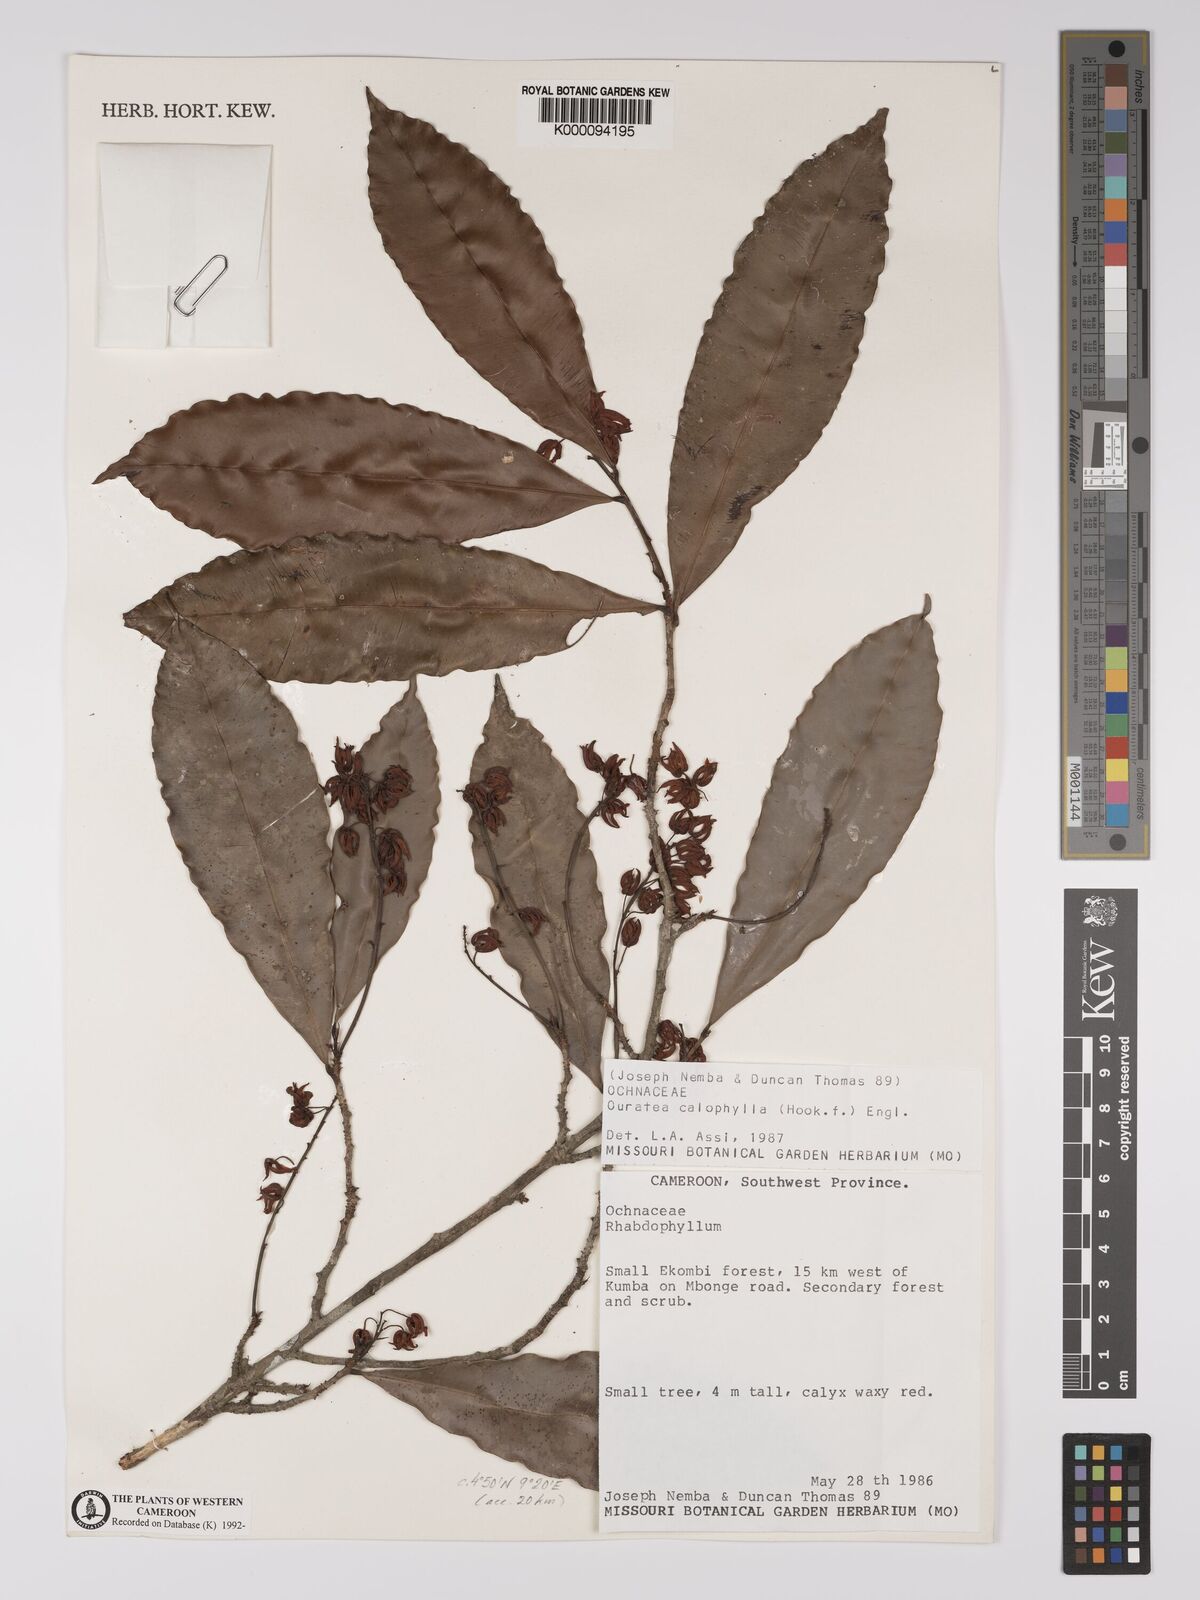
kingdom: Plantae
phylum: Tracheophyta
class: Magnoliopsida
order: Malpighiales
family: Ochnaceae
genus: Rhabdophyllum
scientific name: Rhabdophyllum calophyllum
